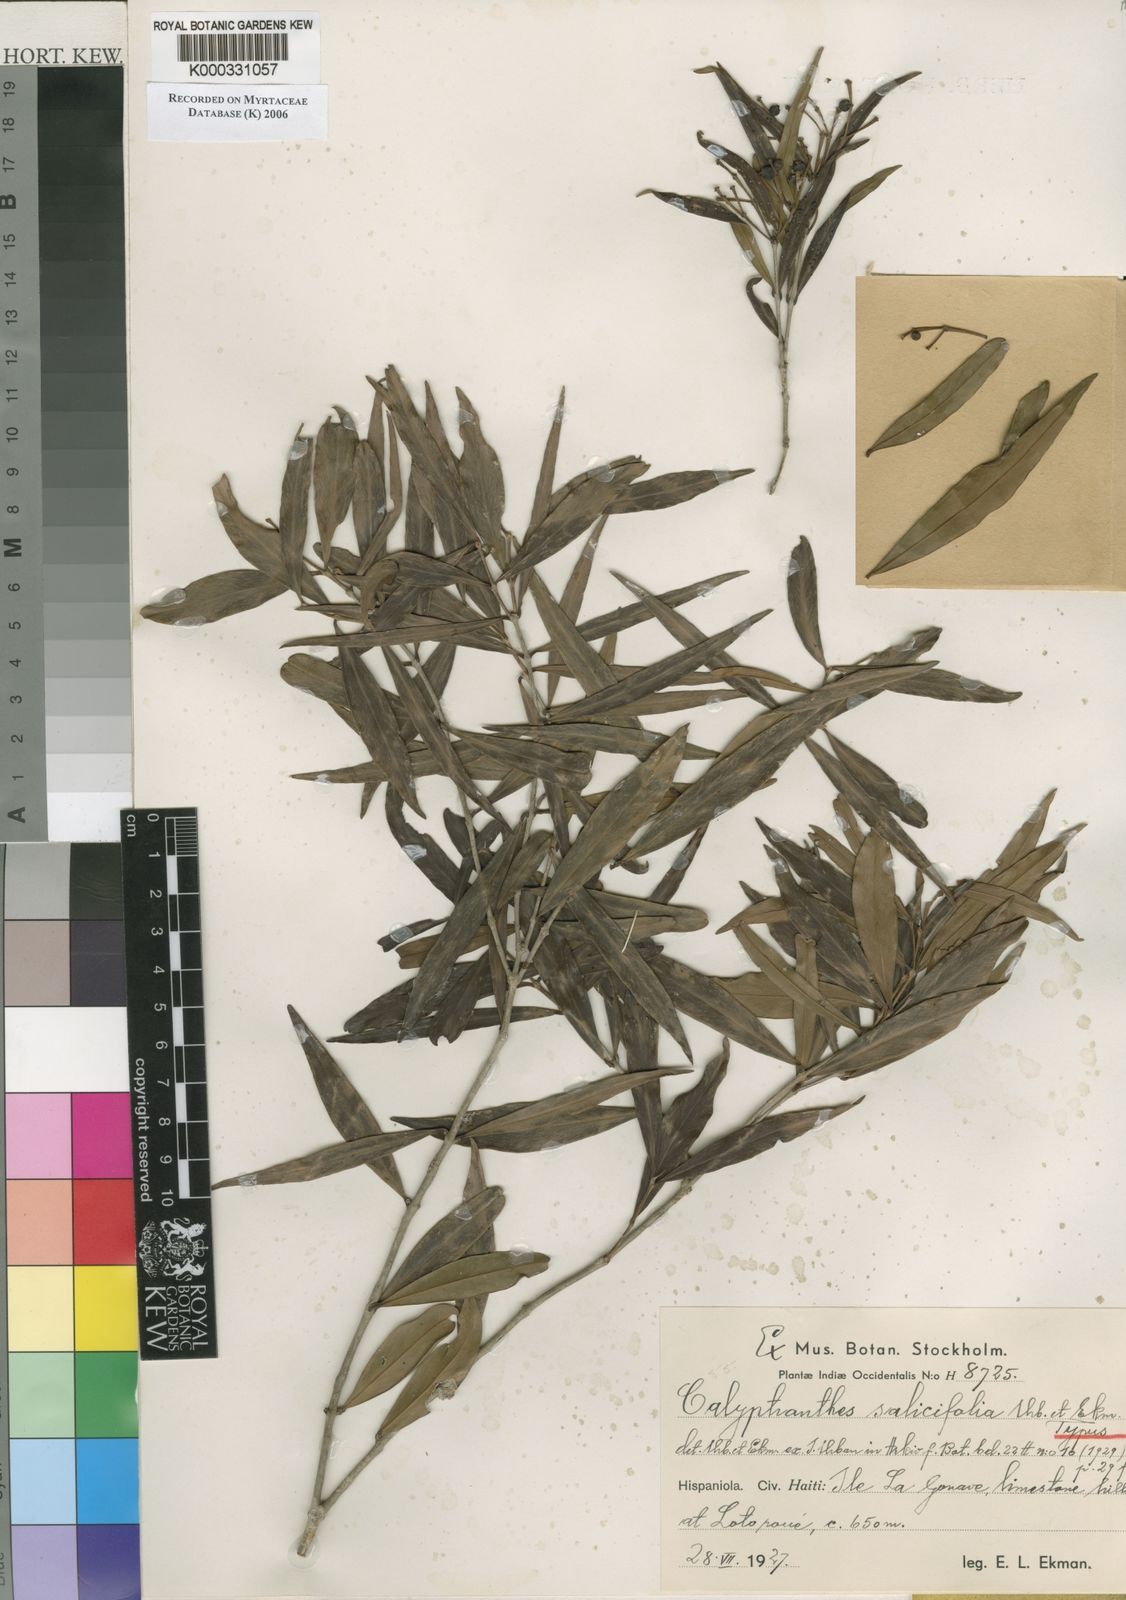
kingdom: Plantae
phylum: Tracheophyta
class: Magnoliopsida
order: Myrtales
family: Myrtaceae
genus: Myrcia
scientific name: Myrcia neosalicifolia
